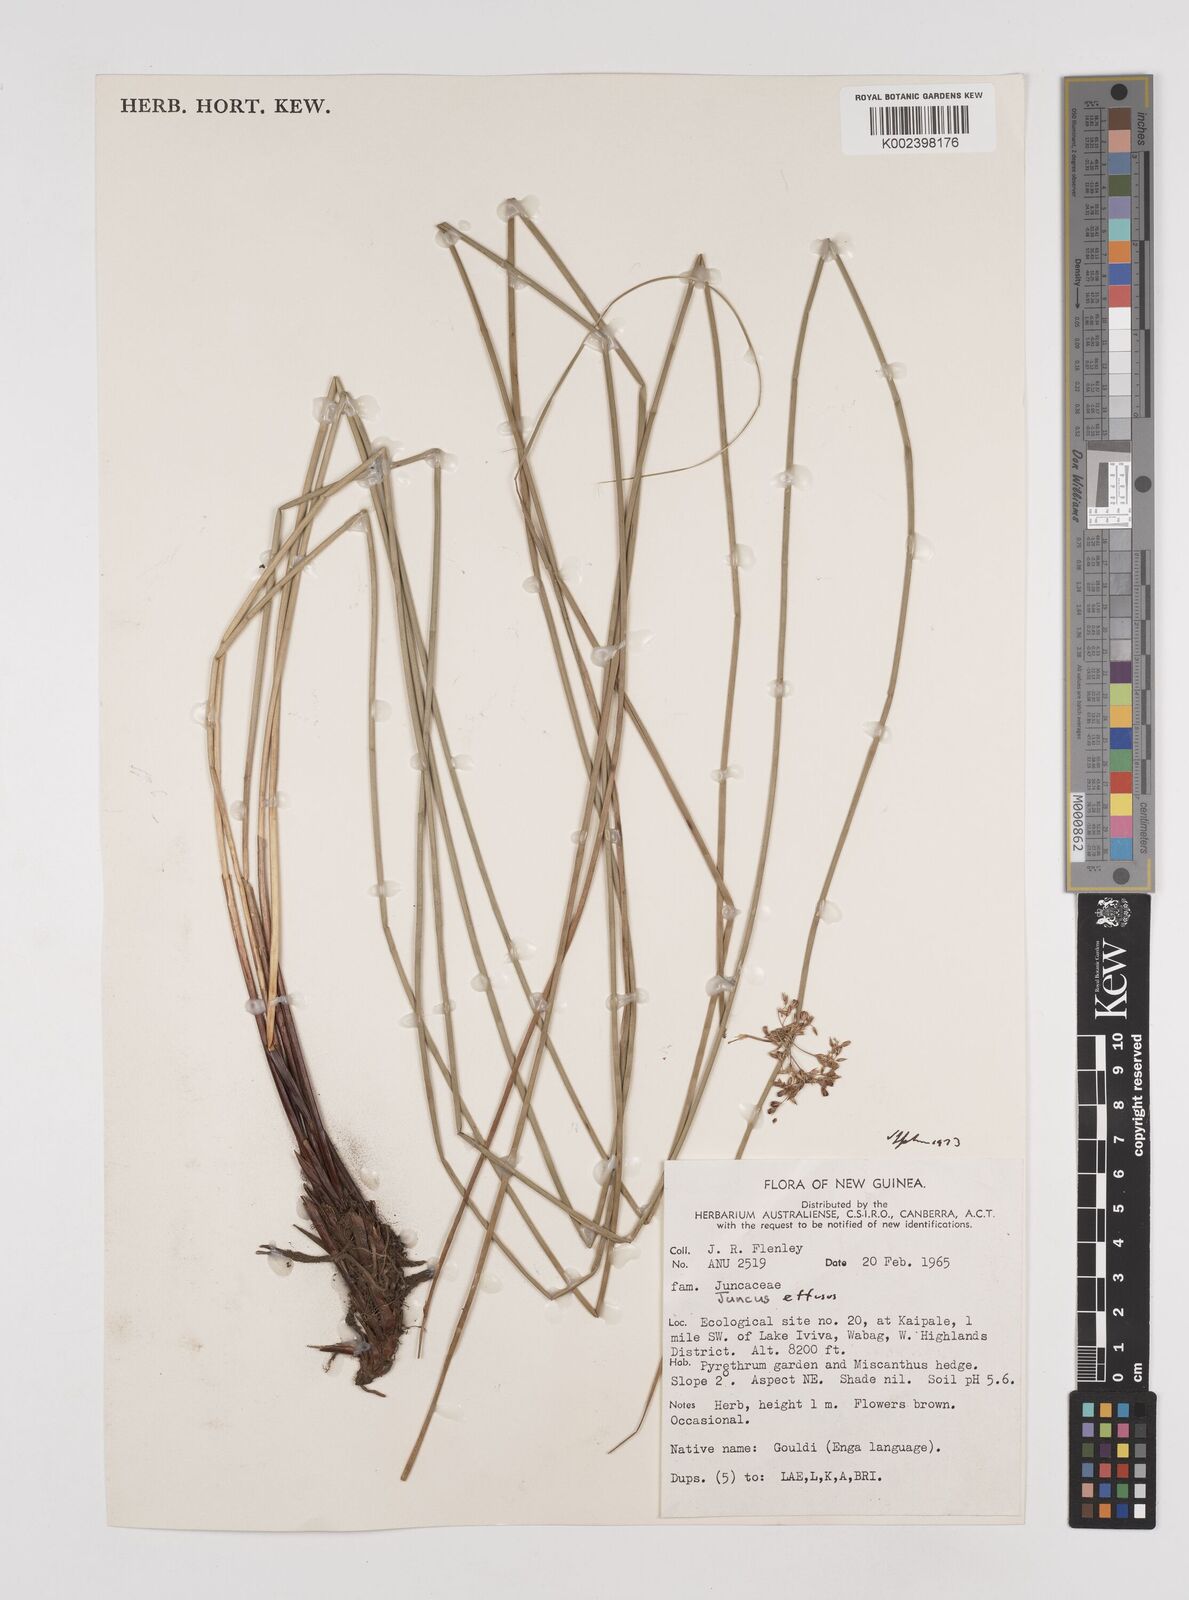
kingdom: Plantae
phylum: Tracheophyta
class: Liliopsida
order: Poales
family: Juncaceae
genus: Juncus
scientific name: Juncus decipiens
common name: Lamp rush
